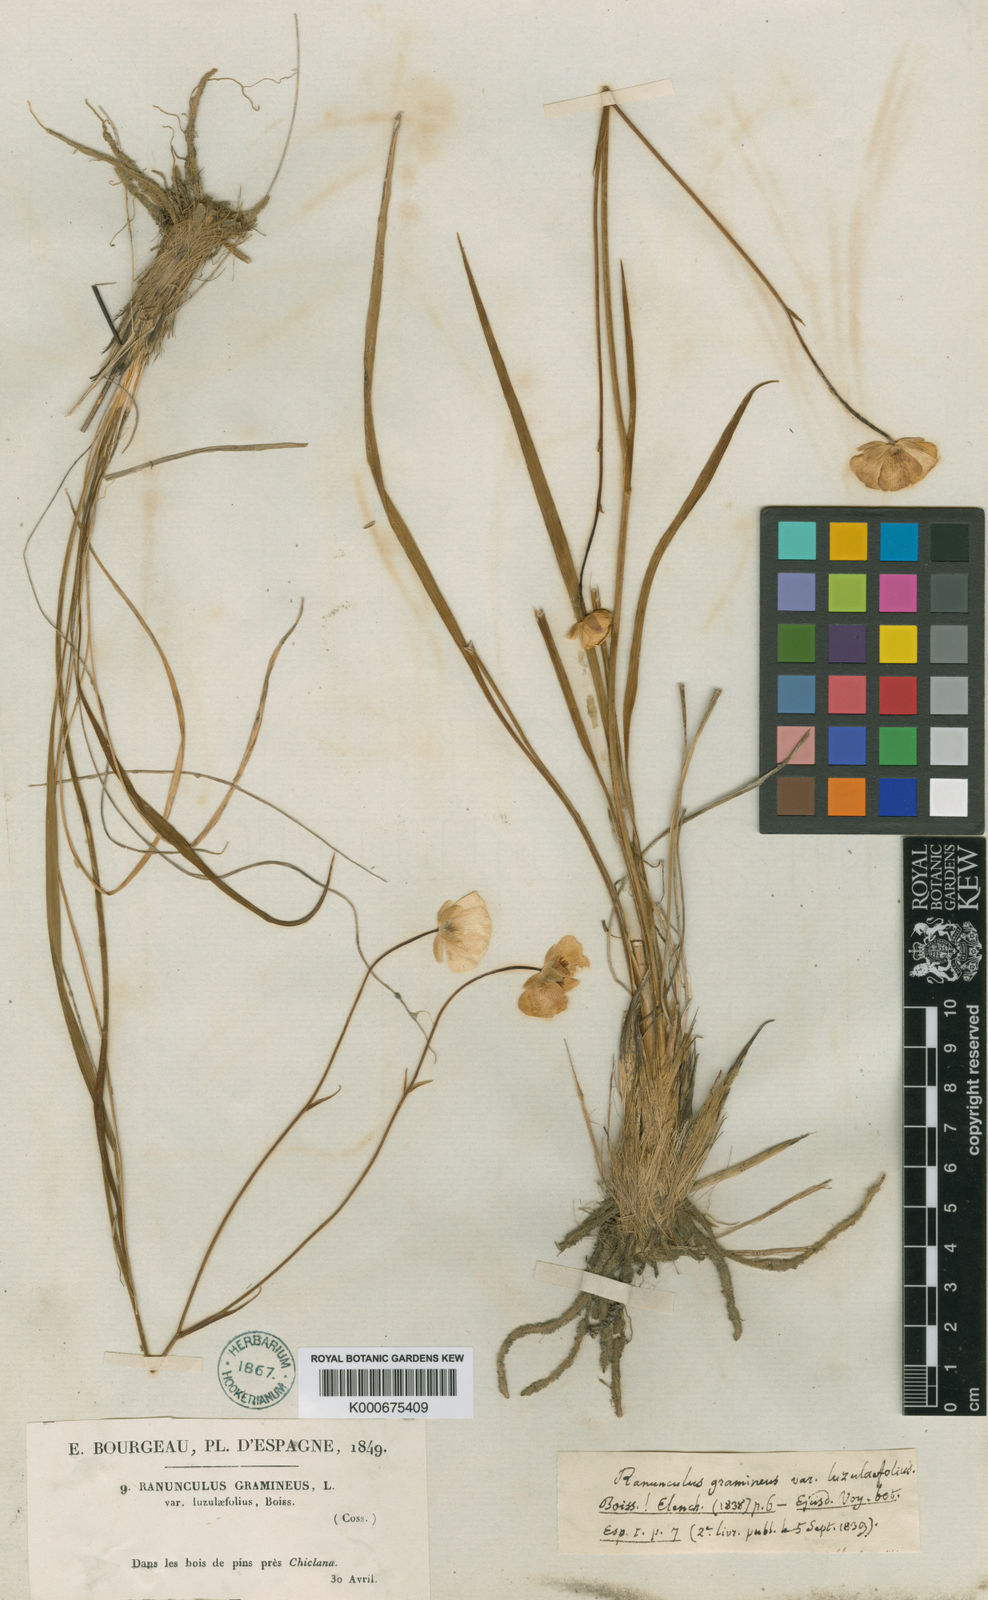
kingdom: Plantae
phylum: Tracheophyta
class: Magnoliopsida
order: Ranunculales
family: Ranunculaceae
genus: Ranunculus
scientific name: Ranunculus gramineus
